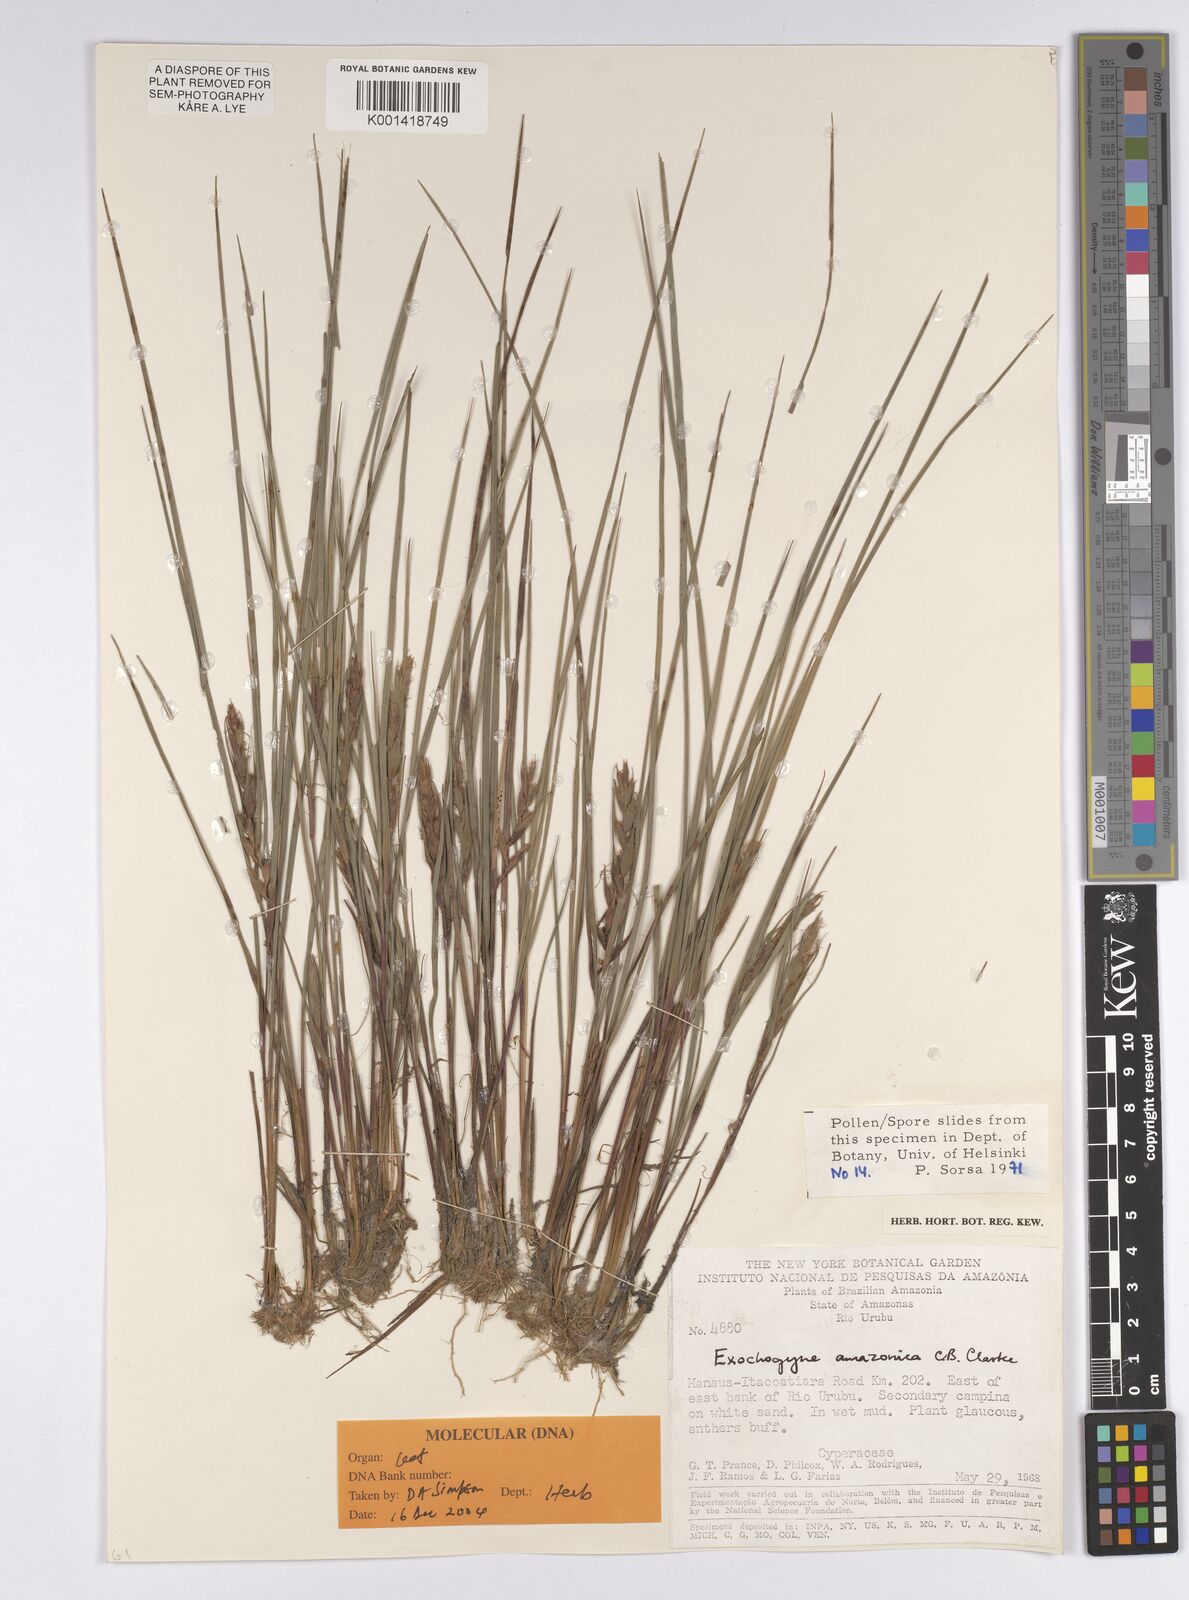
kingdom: Plantae
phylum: Tracheophyta
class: Liliopsida
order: Poales
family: Cyperaceae
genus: Exochogyne
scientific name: Exochogyne amazonica
